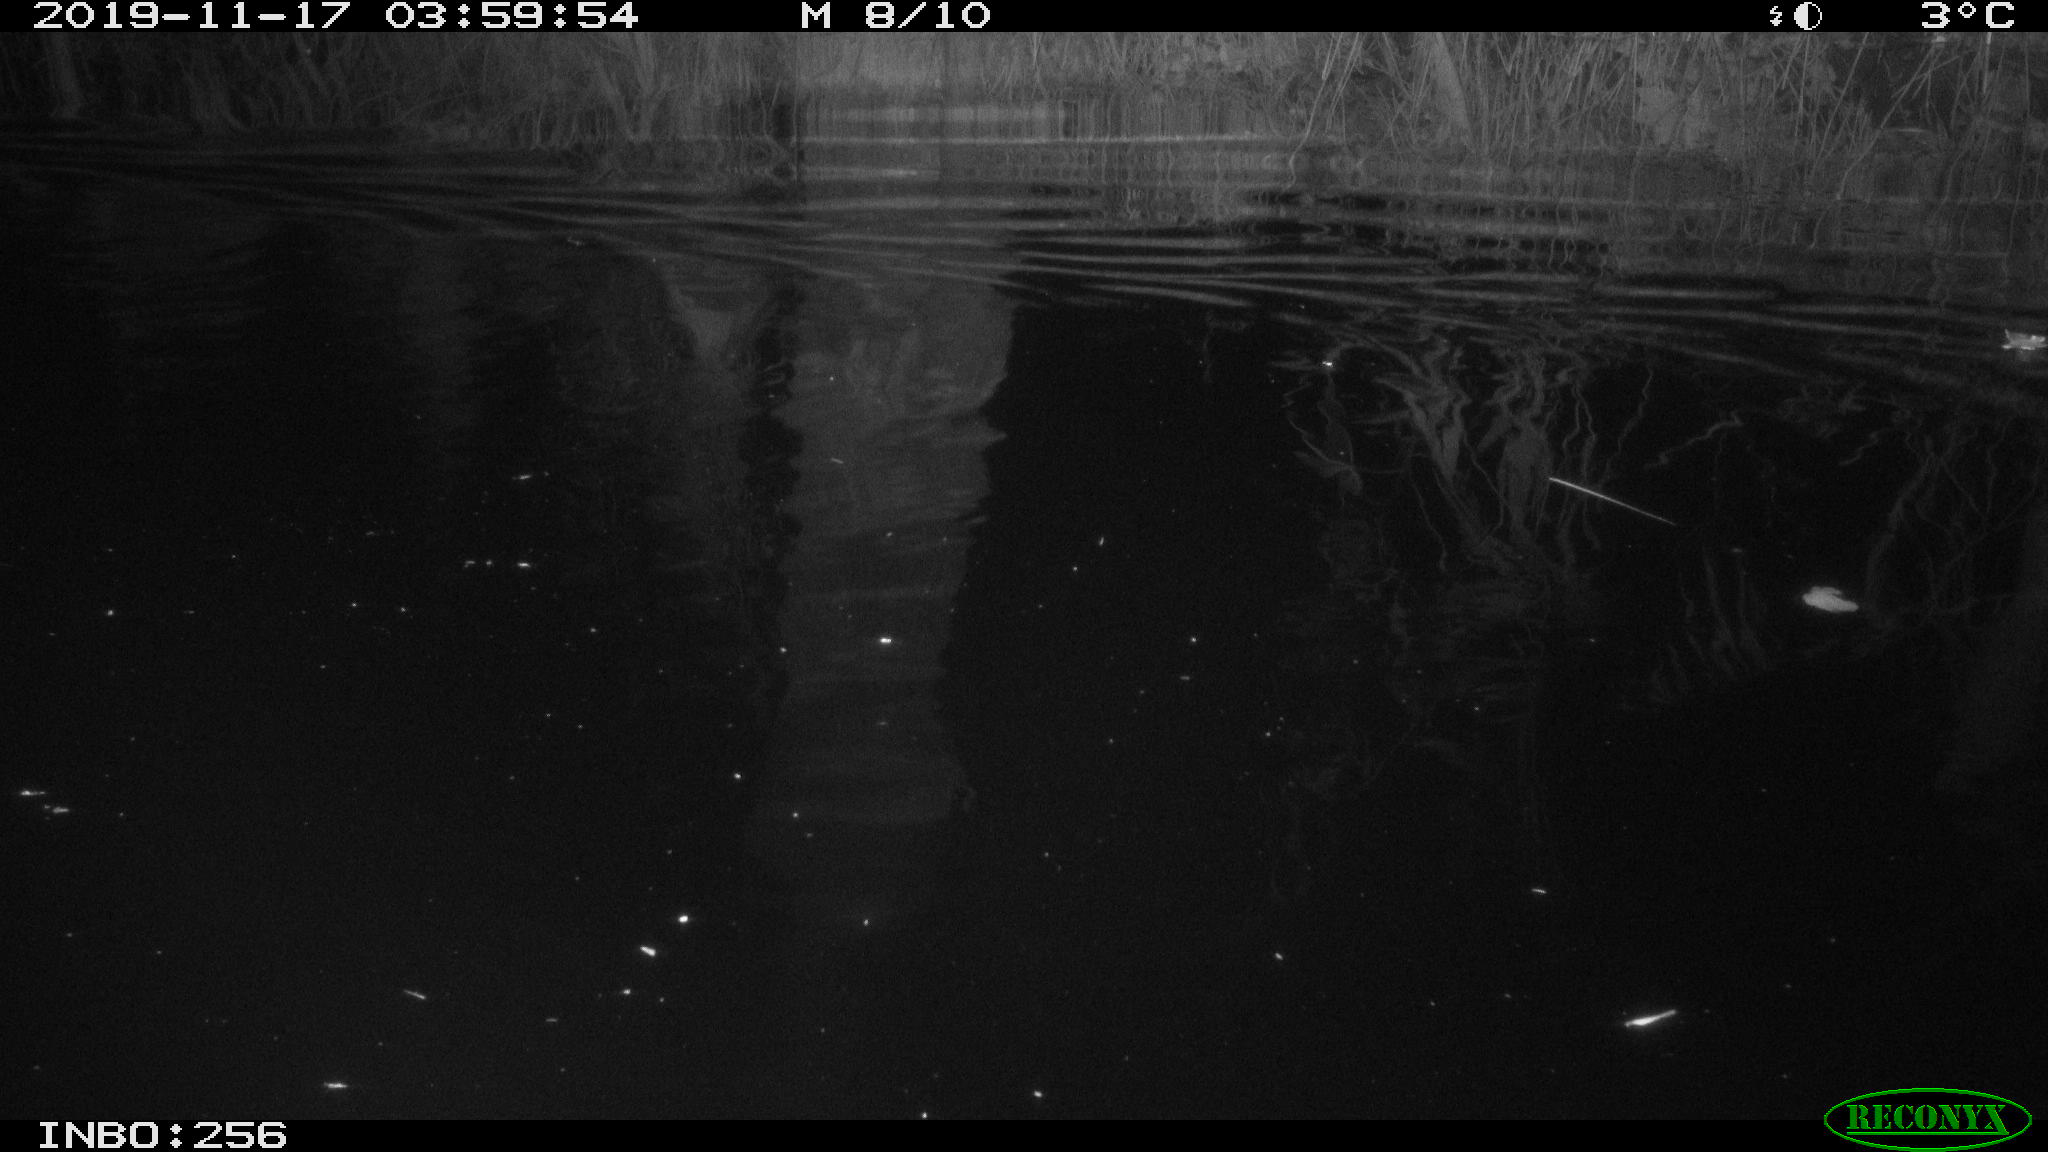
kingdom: Animalia
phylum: Chordata
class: Mammalia
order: Rodentia
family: Cricetidae
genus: Ondatra
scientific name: Ondatra zibethicus
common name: Muskrat
